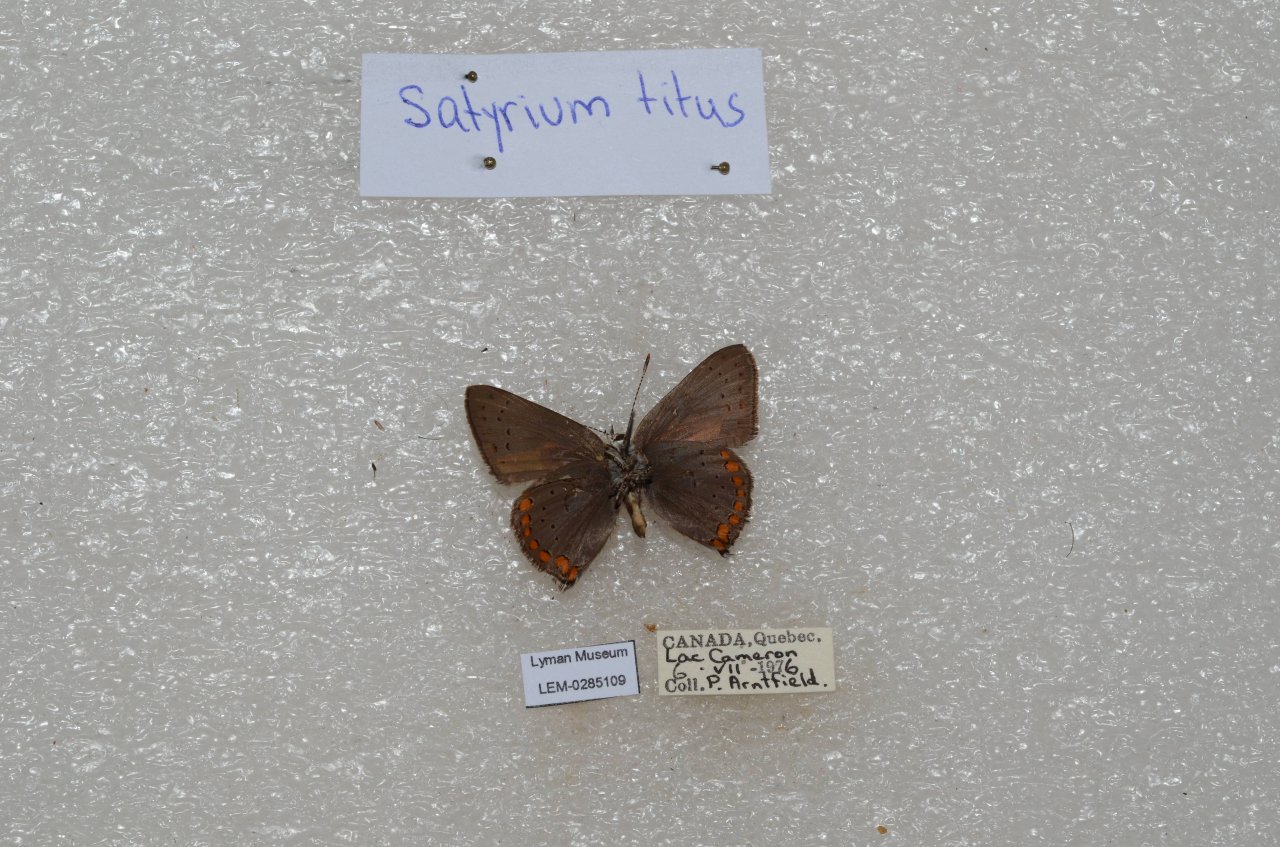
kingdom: Animalia
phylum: Arthropoda
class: Insecta
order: Lepidoptera
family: Lycaenidae
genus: Harkenclenus
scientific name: Harkenclenus titus
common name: Coral Hairstreak
